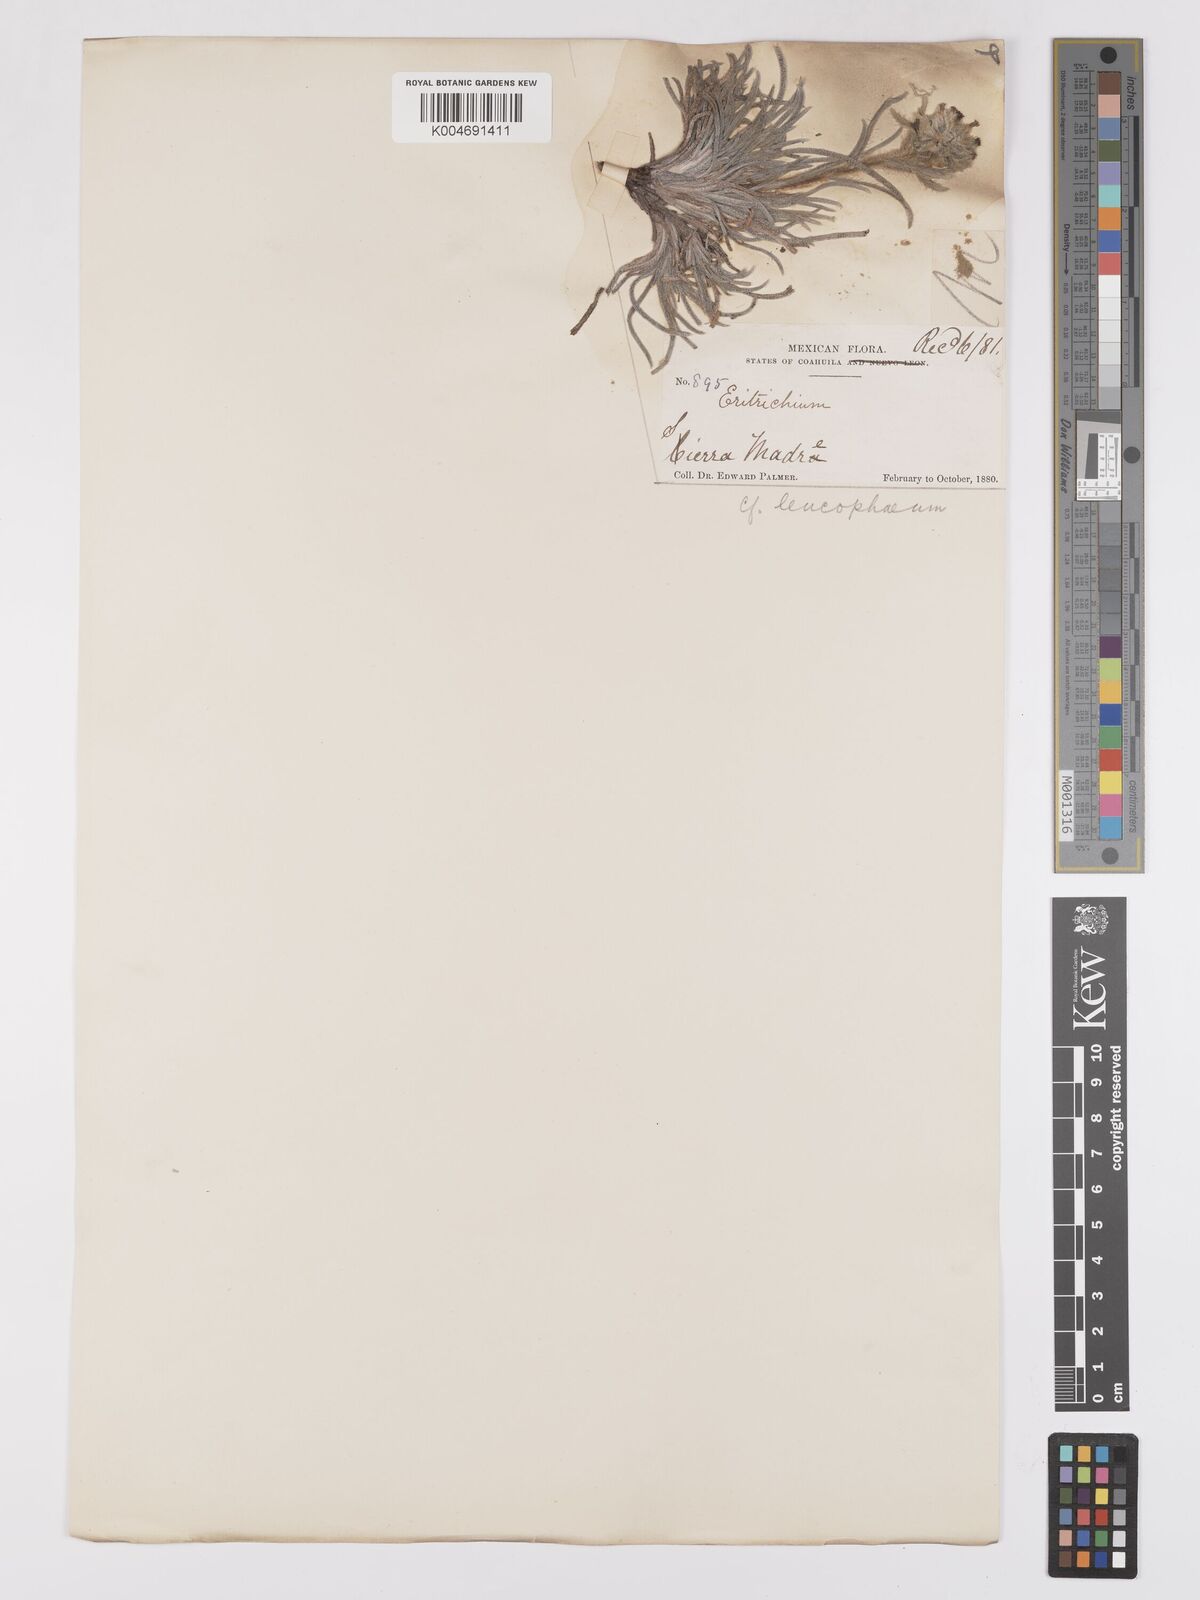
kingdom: Plantae
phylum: Tracheophyta
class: Magnoliopsida
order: Boraginales
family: Boraginaceae
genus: Oreocarya
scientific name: Oreocarya leucophaea
